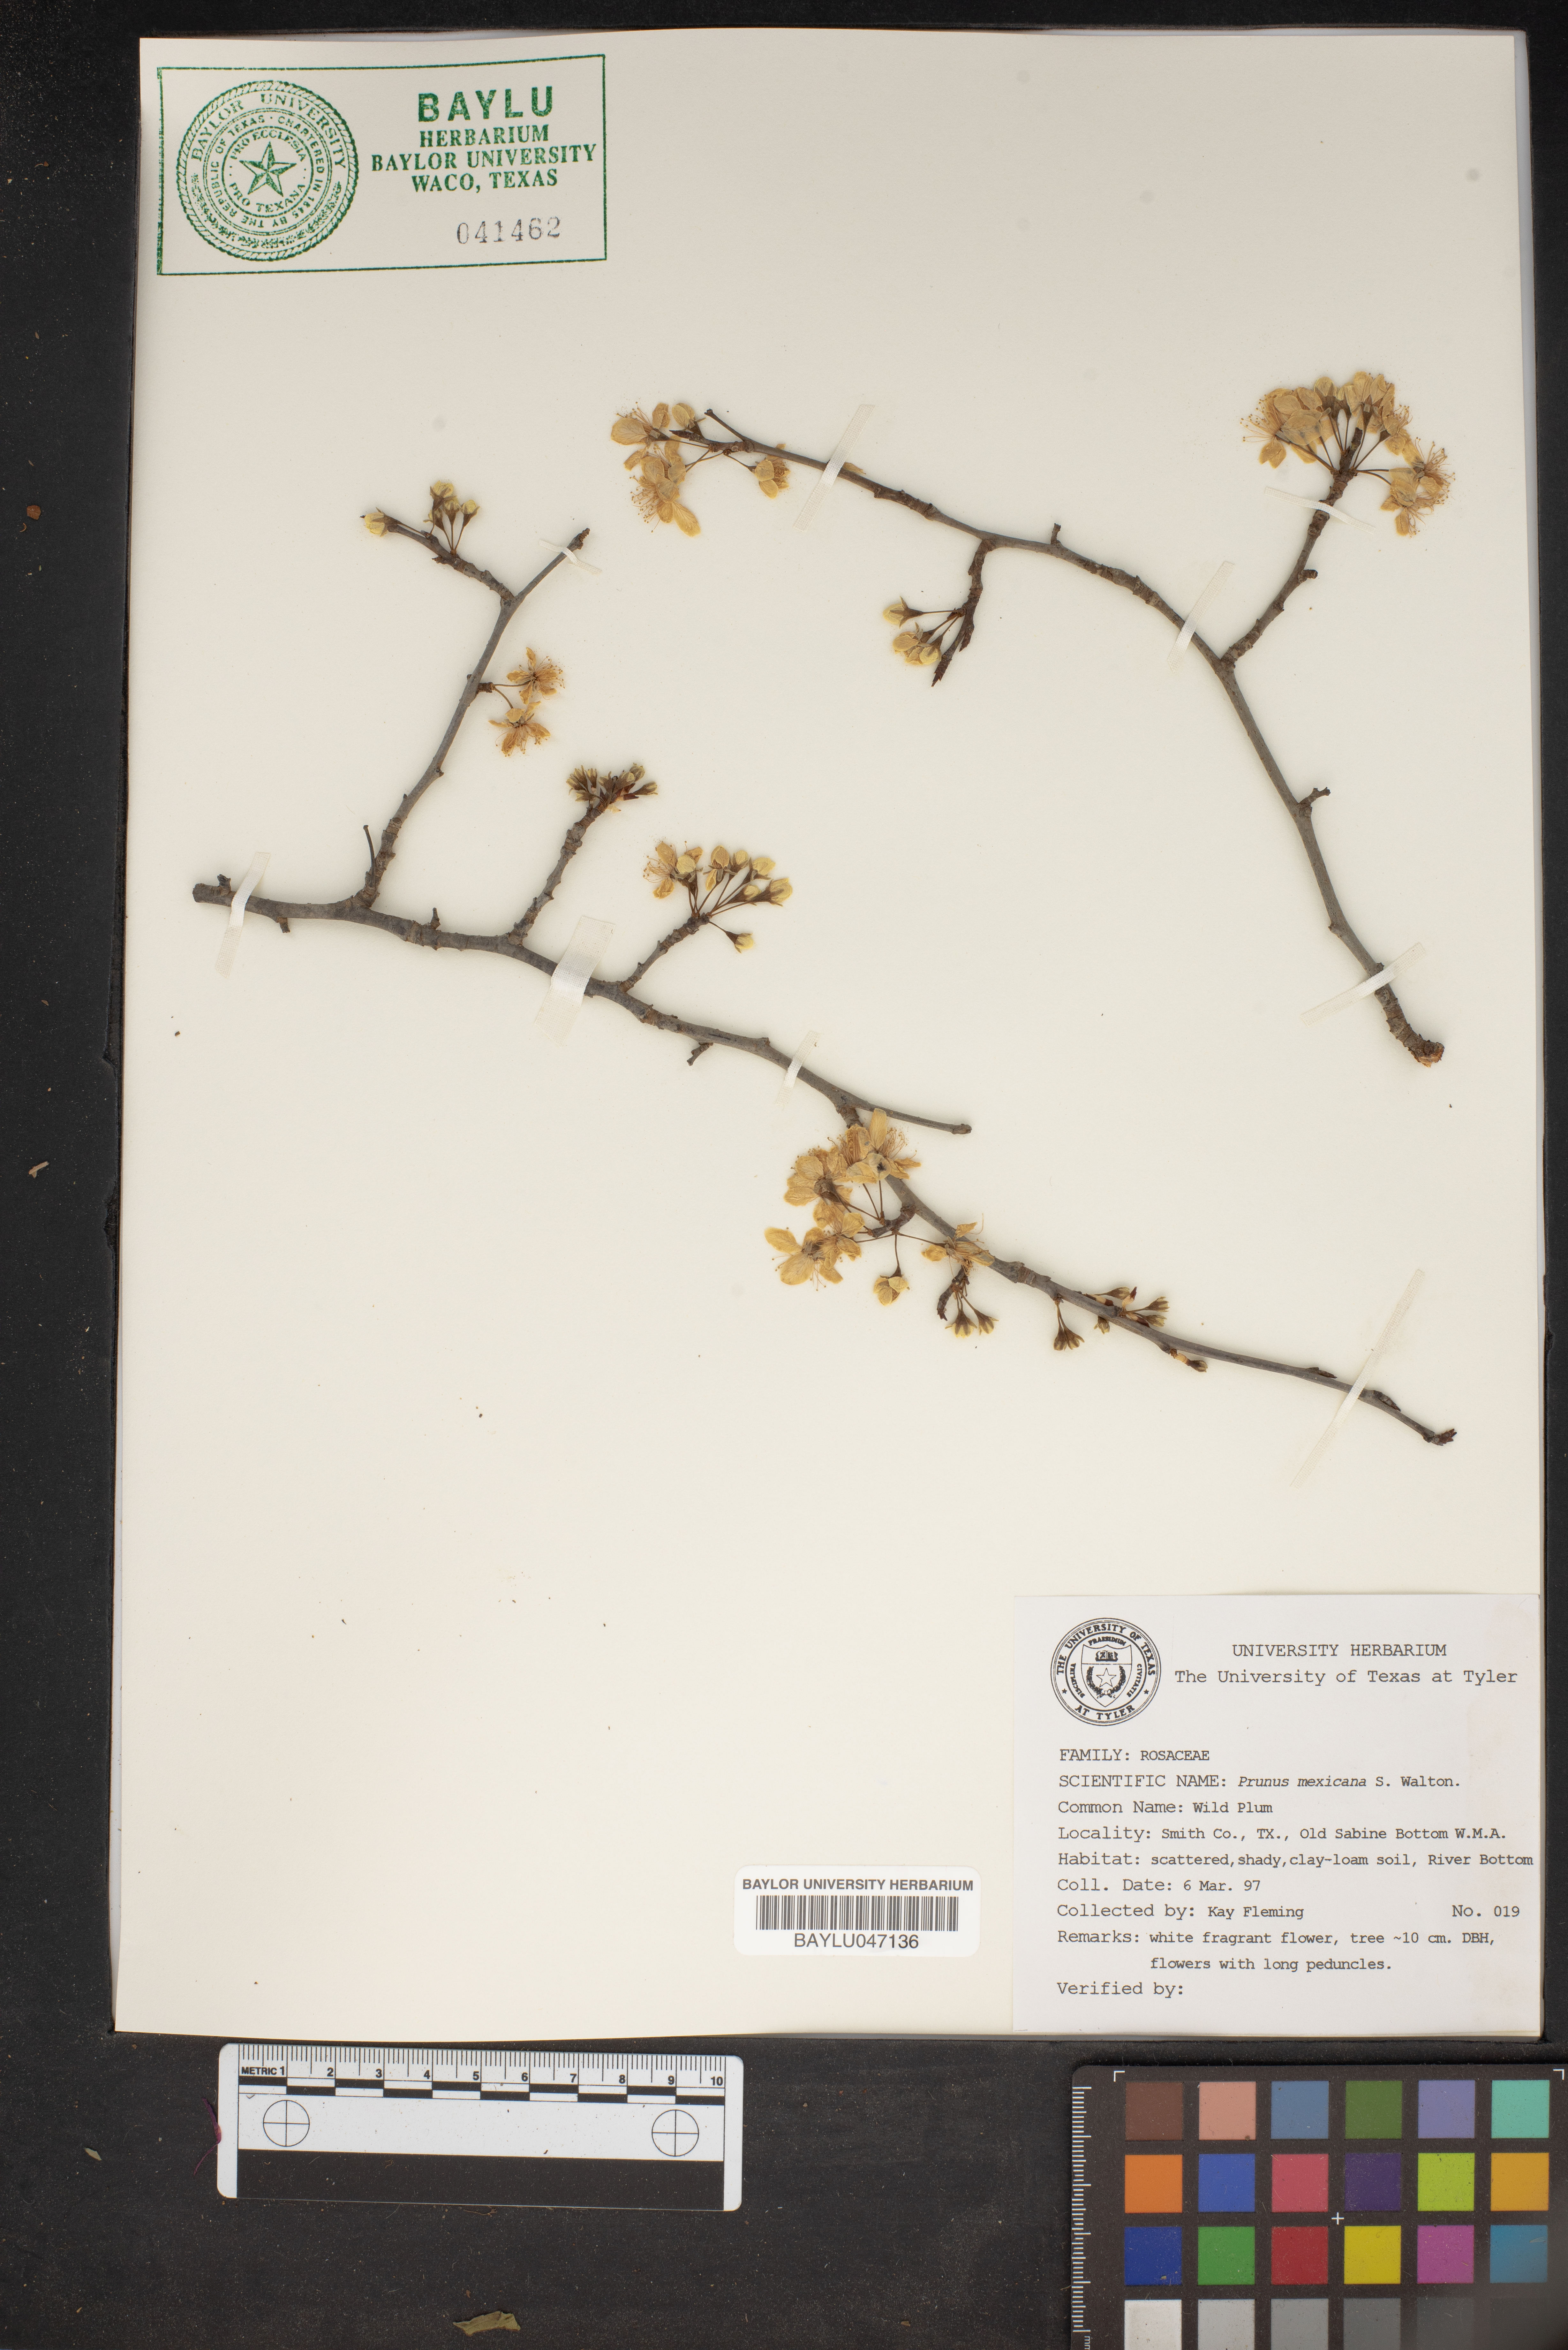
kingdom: Plantae
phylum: Tracheophyta
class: Magnoliopsida
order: Rosales
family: Rosaceae
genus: Prunus
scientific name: Prunus mexicana
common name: Mexican plum
